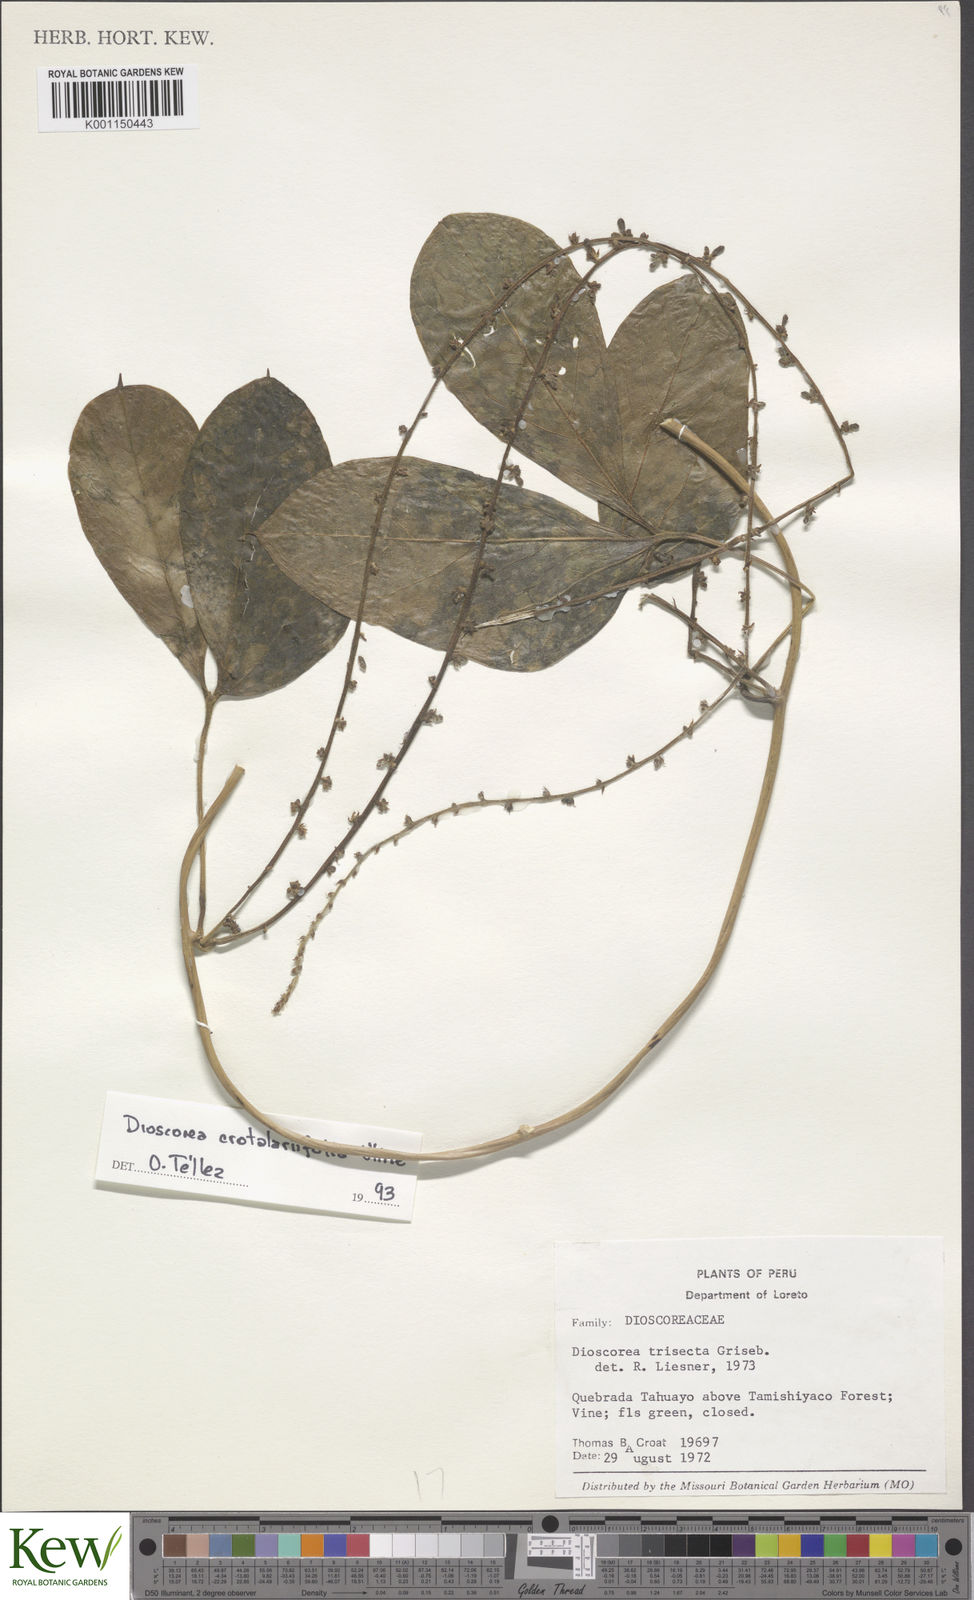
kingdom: Plantae
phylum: Tracheophyta
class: Liliopsida
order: Dioscoreales
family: Dioscoreaceae
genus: Dioscorea
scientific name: Dioscorea trisecta
